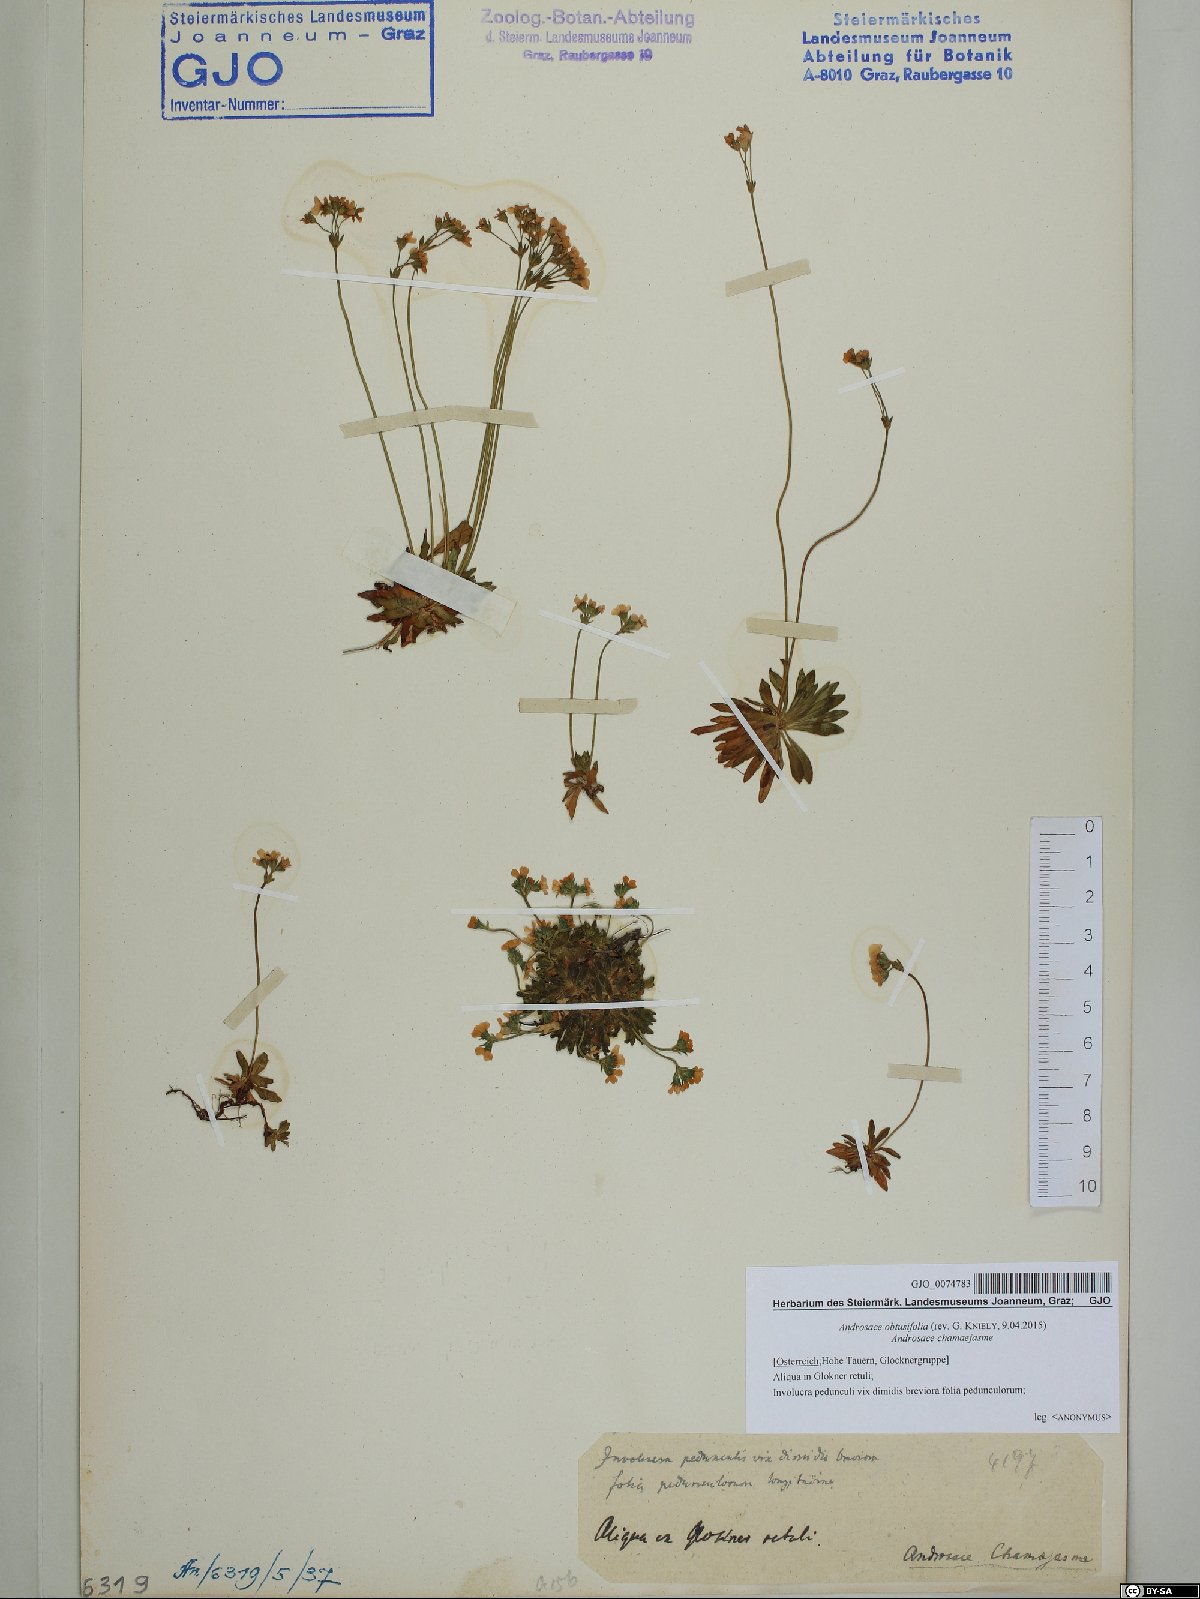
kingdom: Plantae
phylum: Tracheophyta
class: Magnoliopsida
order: Ericales
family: Primulaceae
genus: Androsace
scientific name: Androsace obtusifolia
